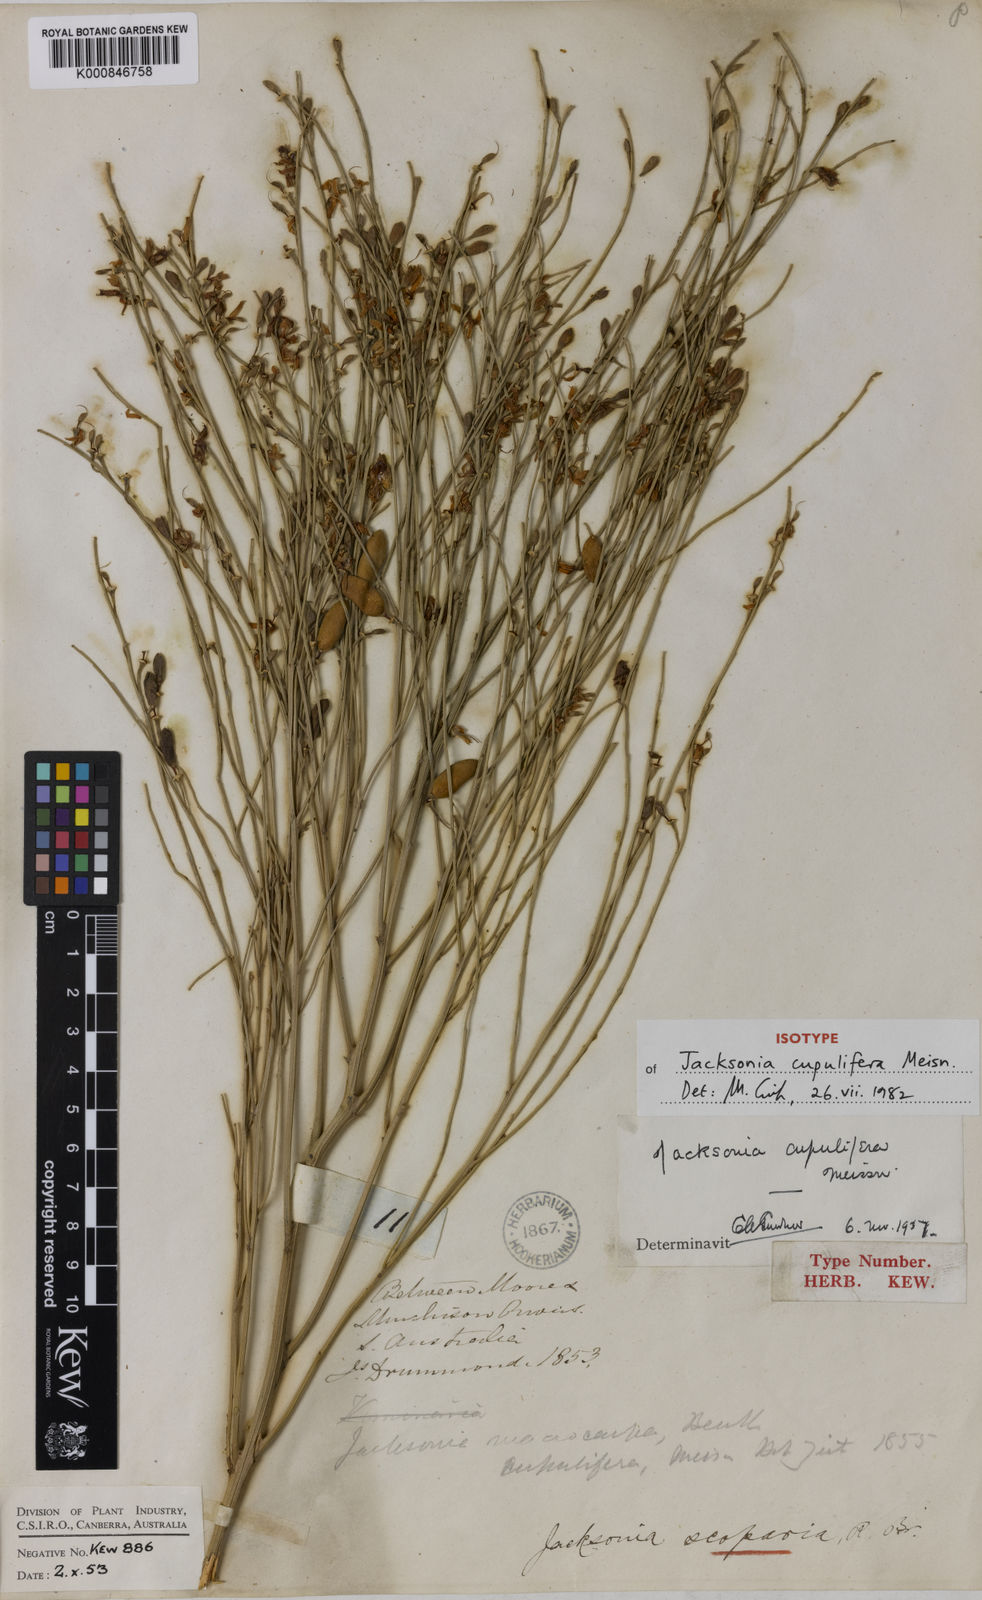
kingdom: Plantae
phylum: Tracheophyta
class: Magnoliopsida
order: Fabales
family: Fabaceae
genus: Jacksonia
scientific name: Jacksonia cupulifera
